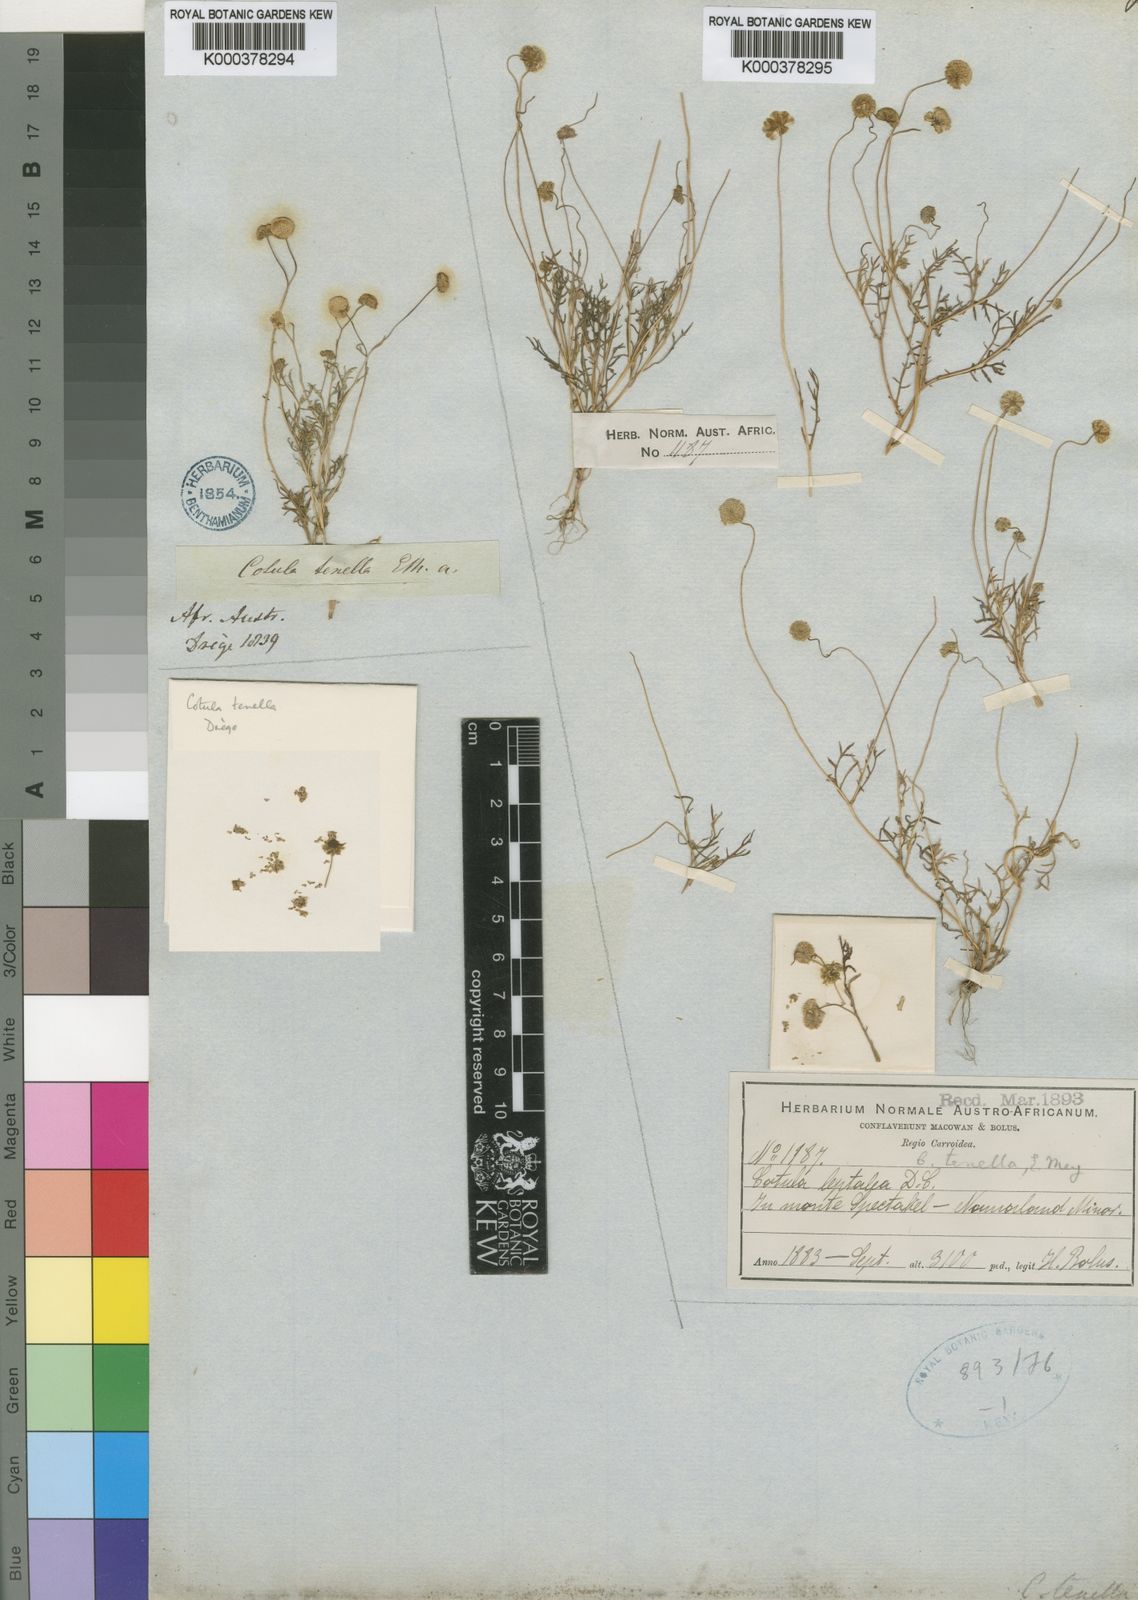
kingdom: Plantae
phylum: Tracheophyta
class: Magnoliopsida
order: Asterales
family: Asteraceae
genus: Cotula
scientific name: Cotula tenella
